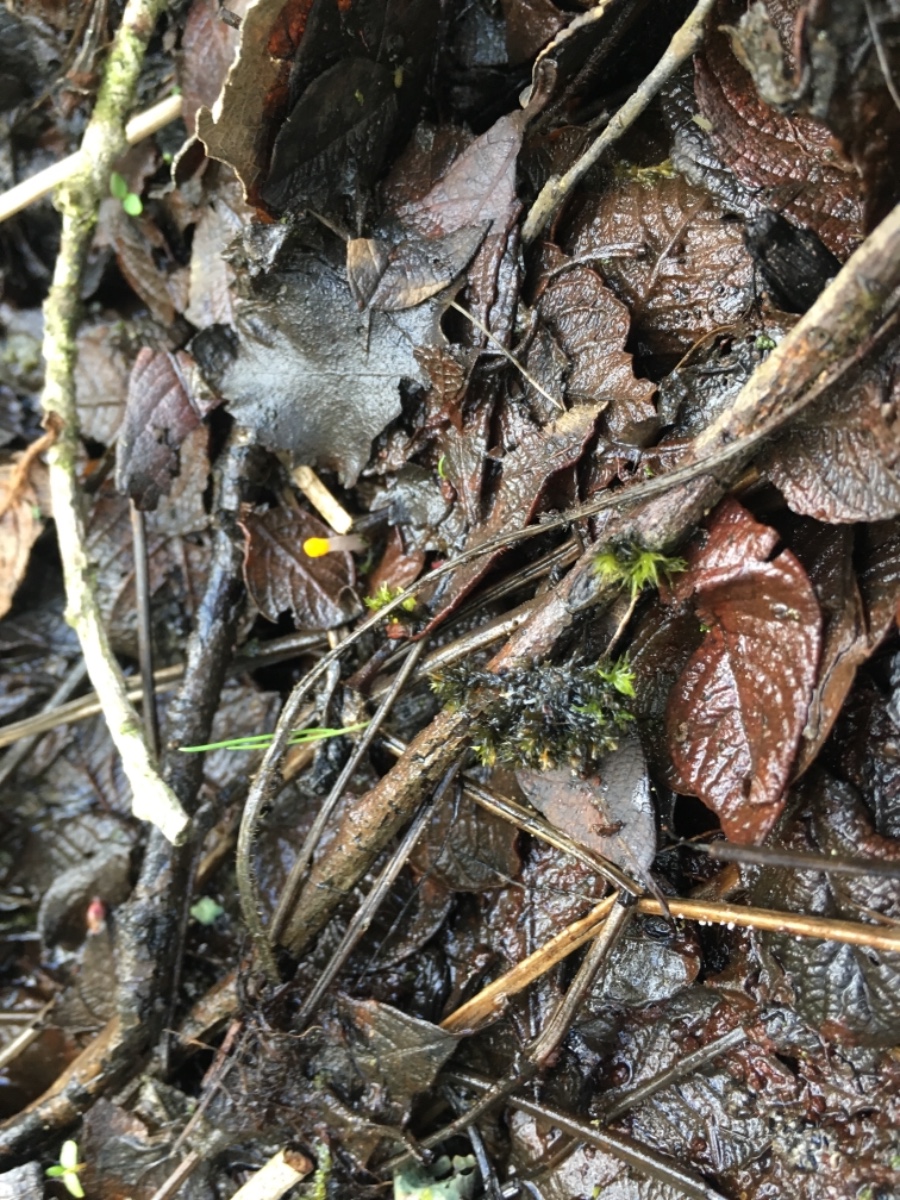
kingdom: Fungi
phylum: Ascomycota
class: Leotiomycetes
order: Helotiales
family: Cenangiaceae
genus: Mitrula
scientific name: Mitrula paludosa
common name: gul nøkketunge
